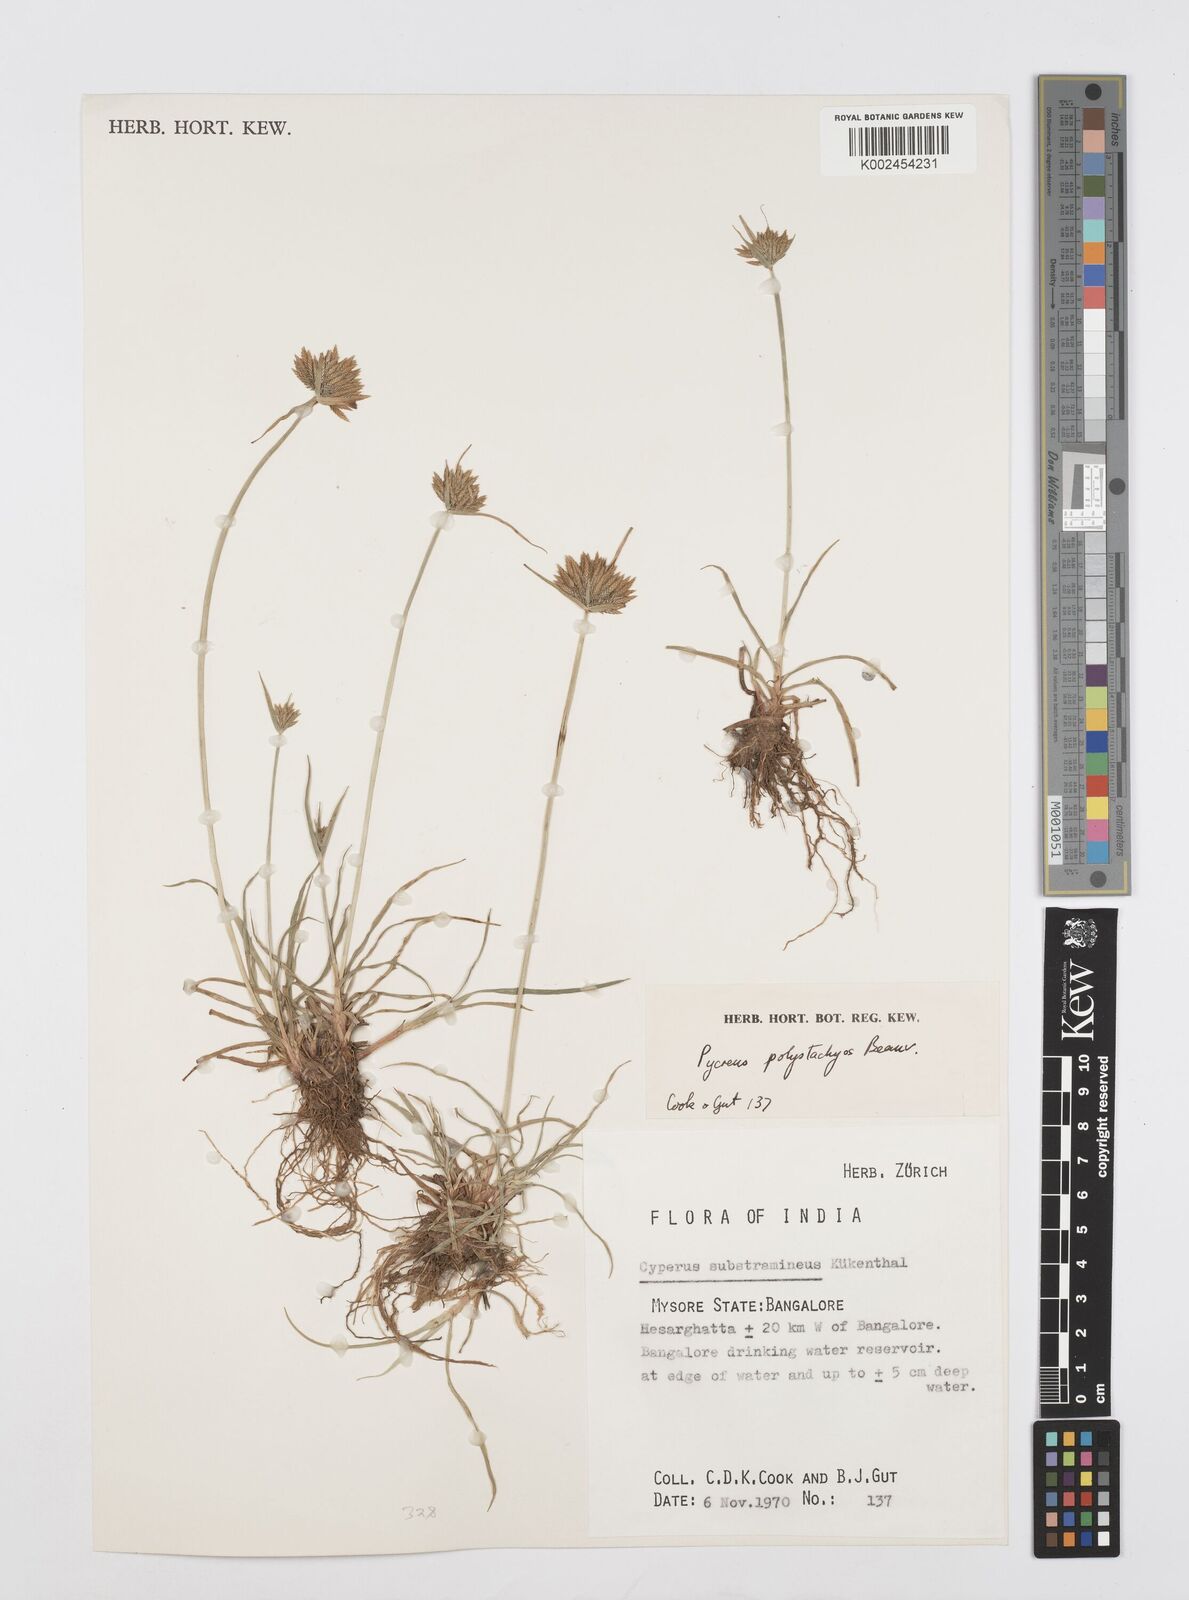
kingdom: Plantae
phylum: Tracheophyta
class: Liliopsida
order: Poales
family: Cyperaceae
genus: Cyperus
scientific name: Cyperus polystachyos
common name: Bunchy flat sedge
